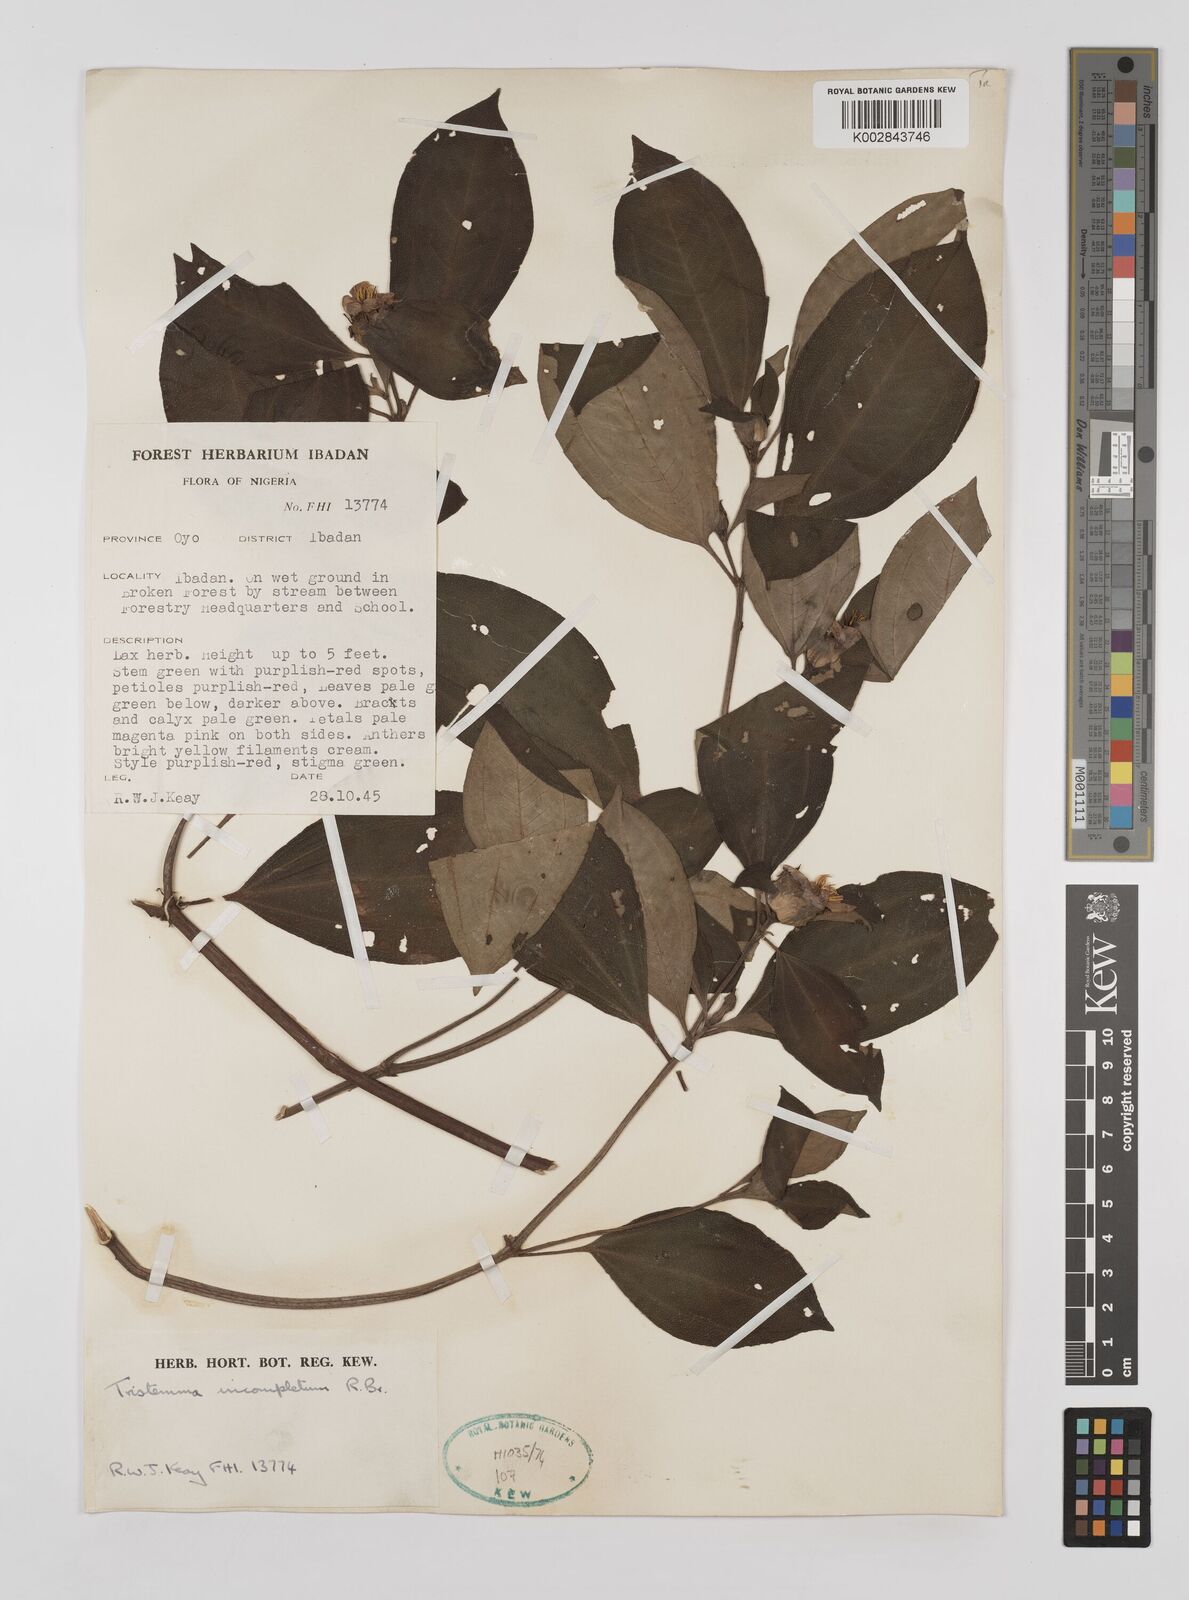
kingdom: Plantae
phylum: Tracheophyta
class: Magnoliopsida
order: Myrtales
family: Melastomataceae
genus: Tristemma
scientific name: Tristemma mauritianum
